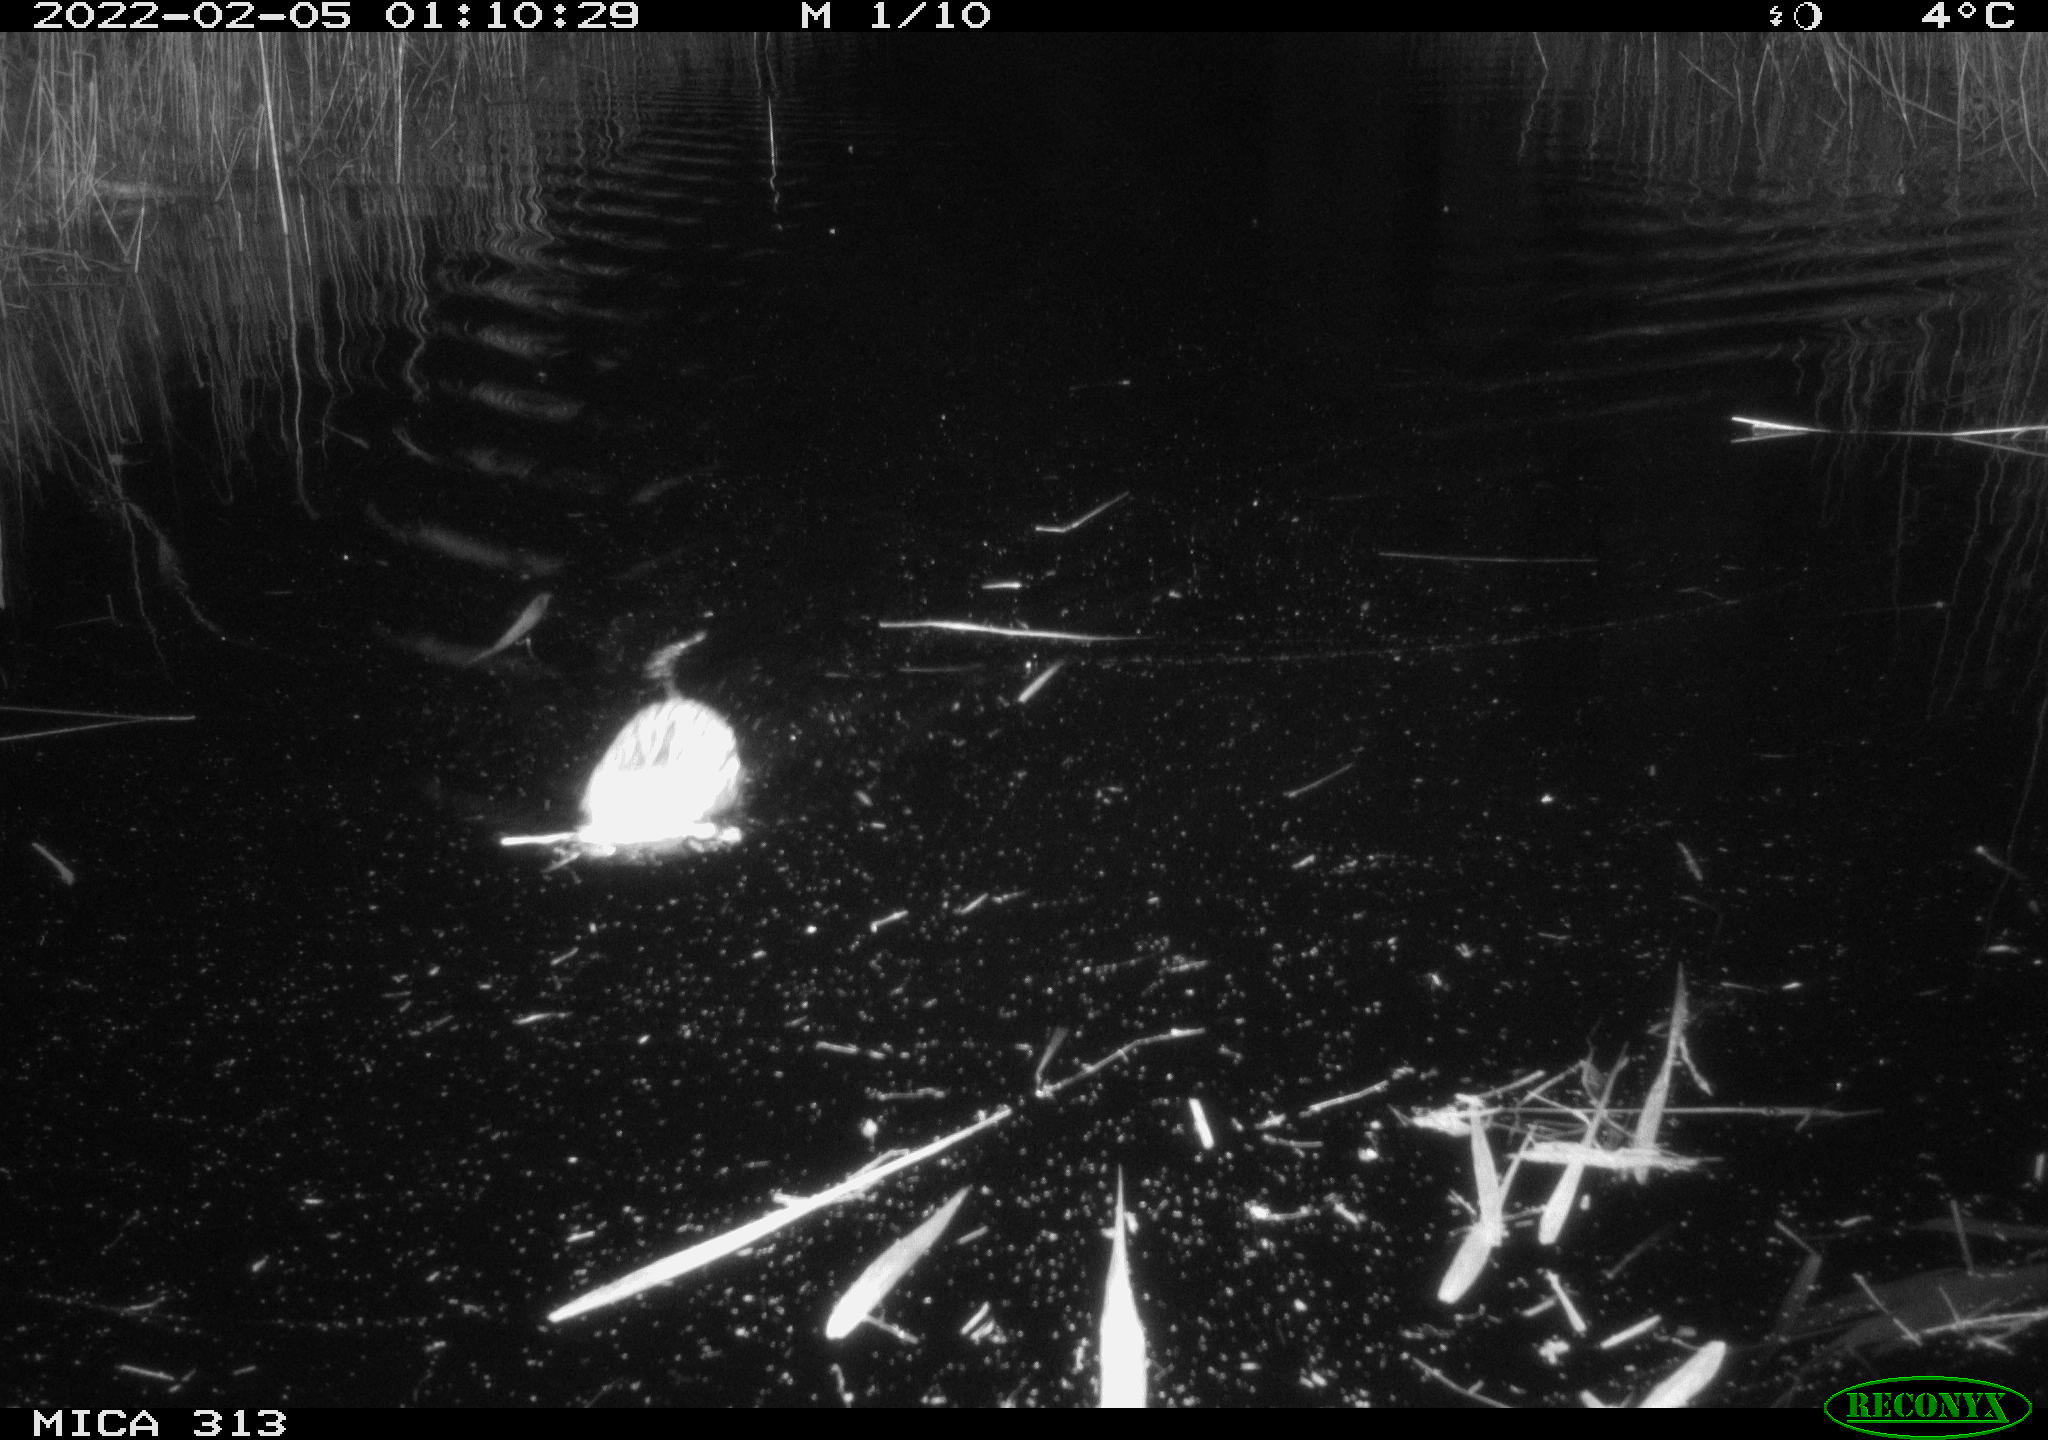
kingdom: Animalia
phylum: Chordata
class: Mammalia
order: Rodentia
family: Cricetidae
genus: Ondatra
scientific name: Ondatra zibethicus
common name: Muskrat
